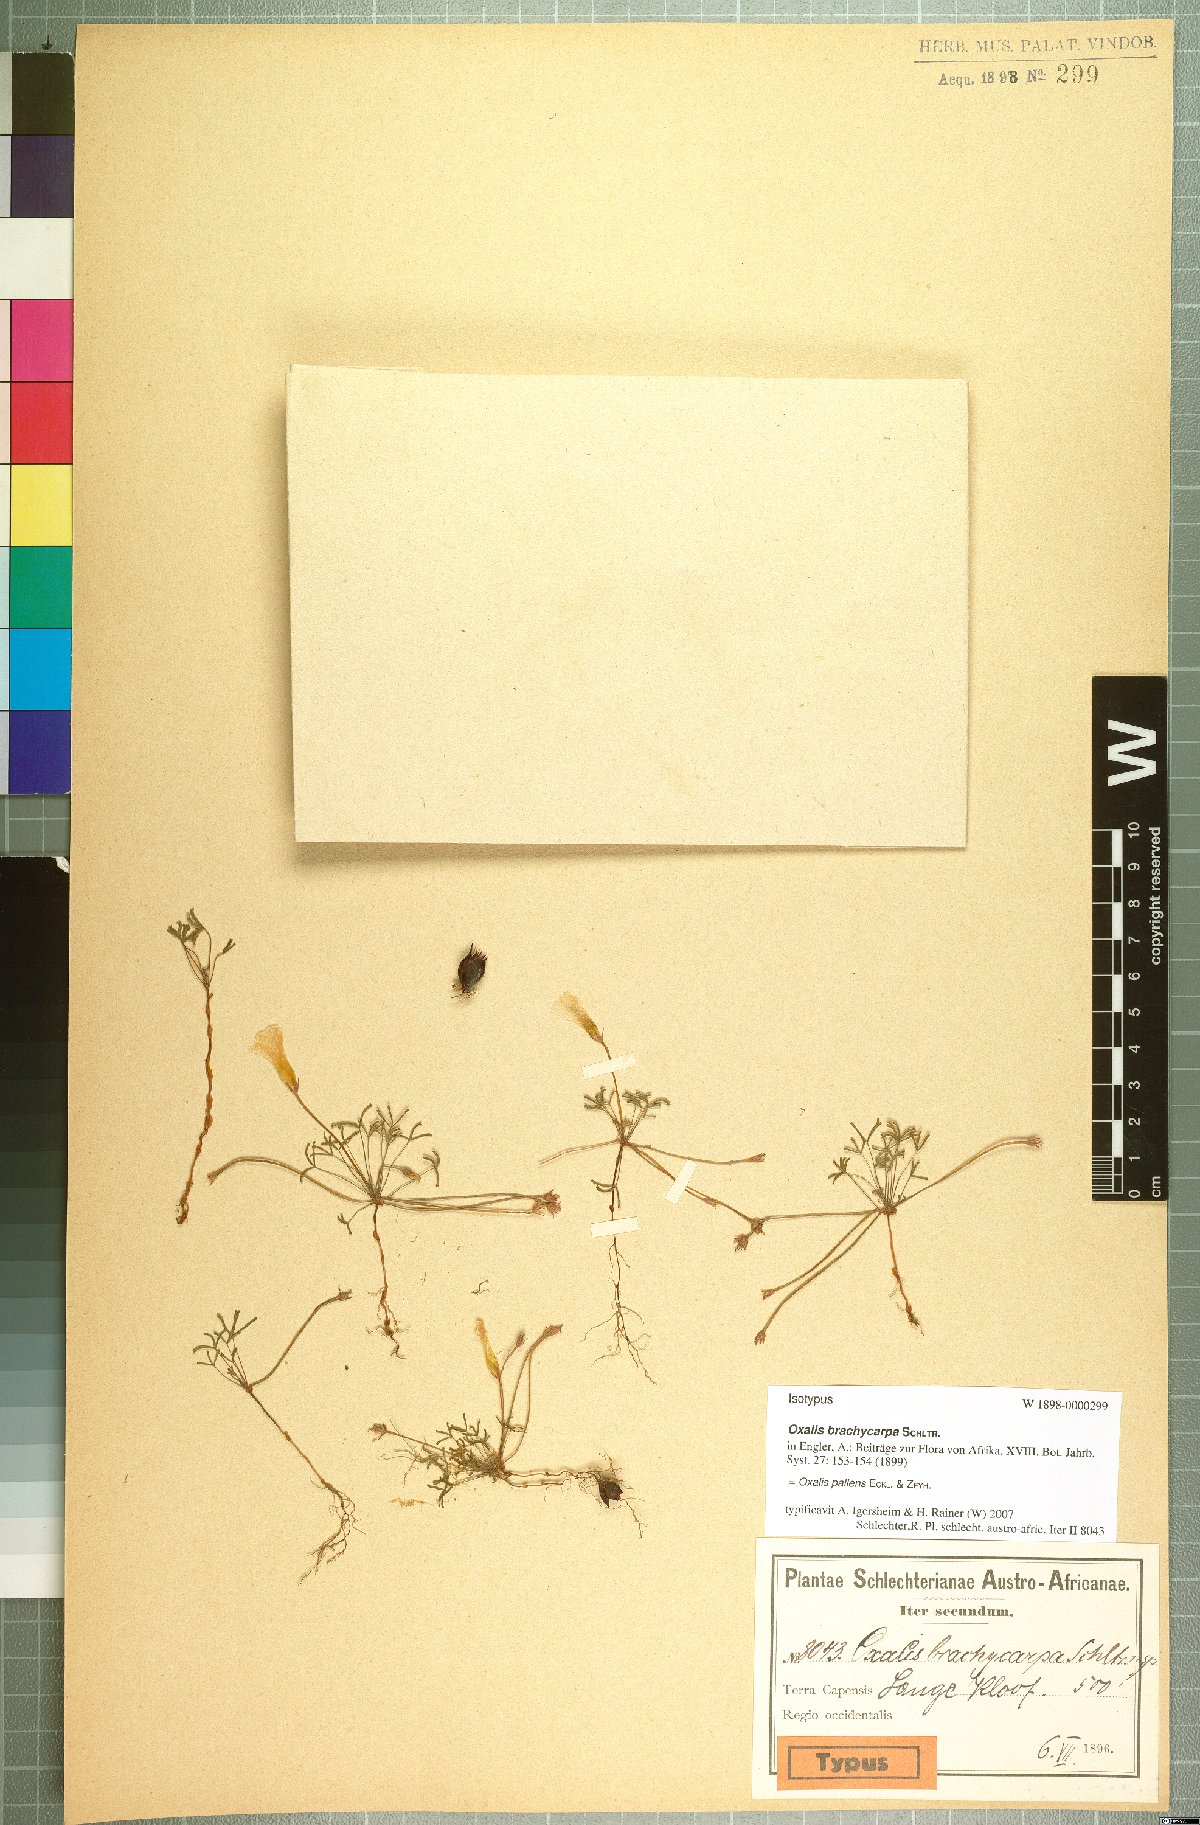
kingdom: Plantae
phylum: Tracheophyta
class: Magnoliopsida
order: Oxalidales
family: Oxalidaceae
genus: Oxalis
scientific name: Oxalis pallens
